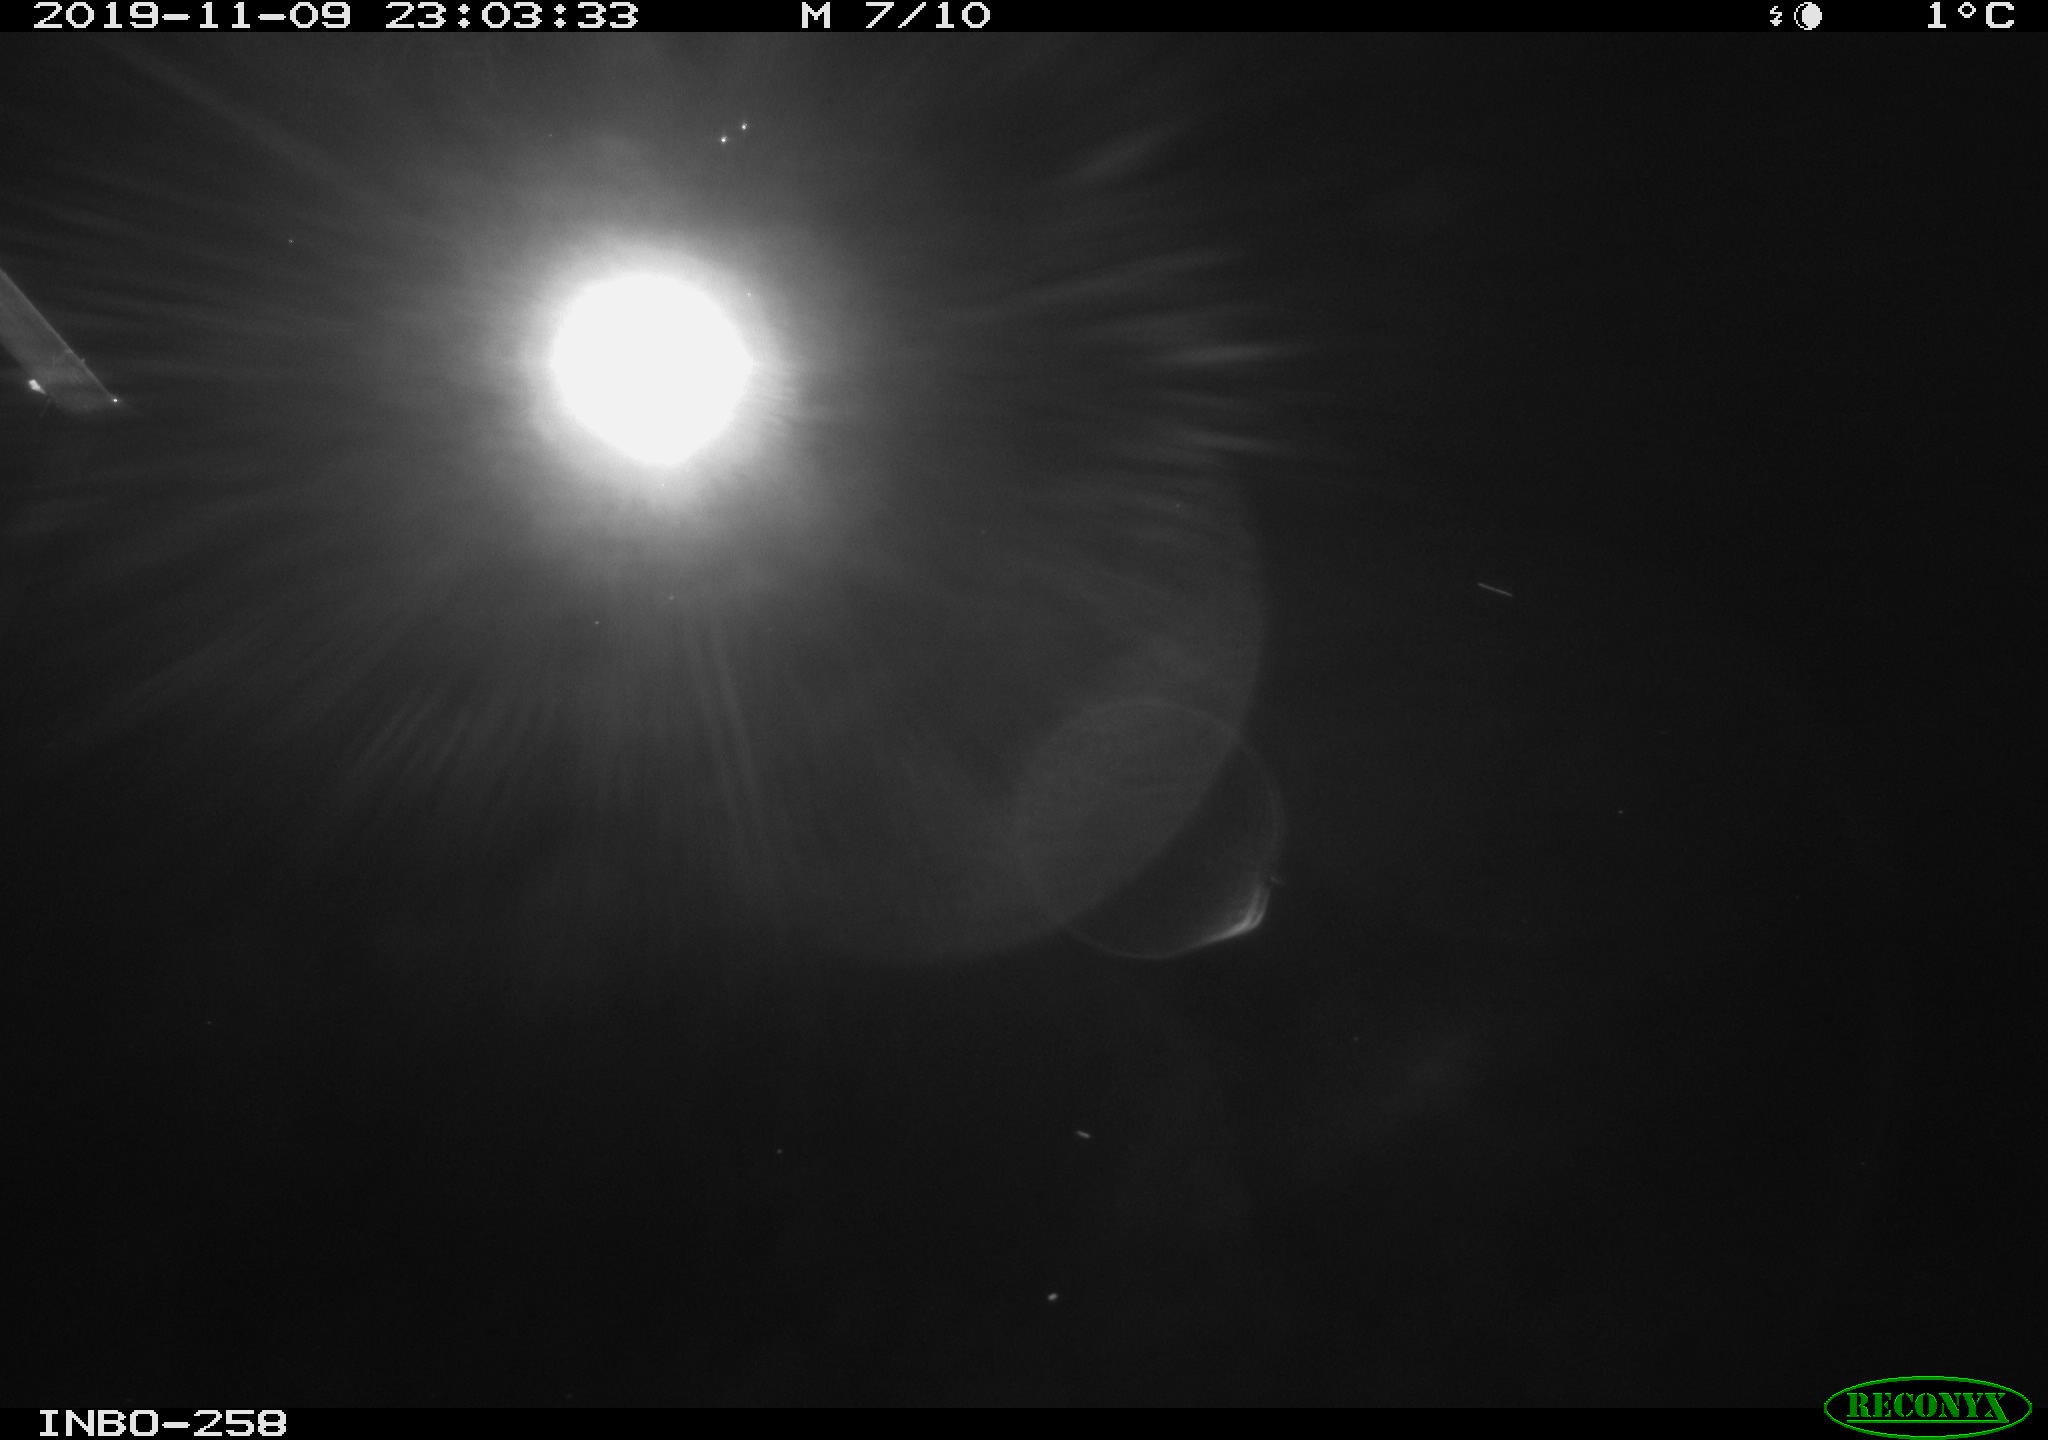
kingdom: Animalia
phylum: Chordata
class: Aves
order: Anseriformes
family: Anatidae
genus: Anas
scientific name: Anas platyrhynchos
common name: Mallard
